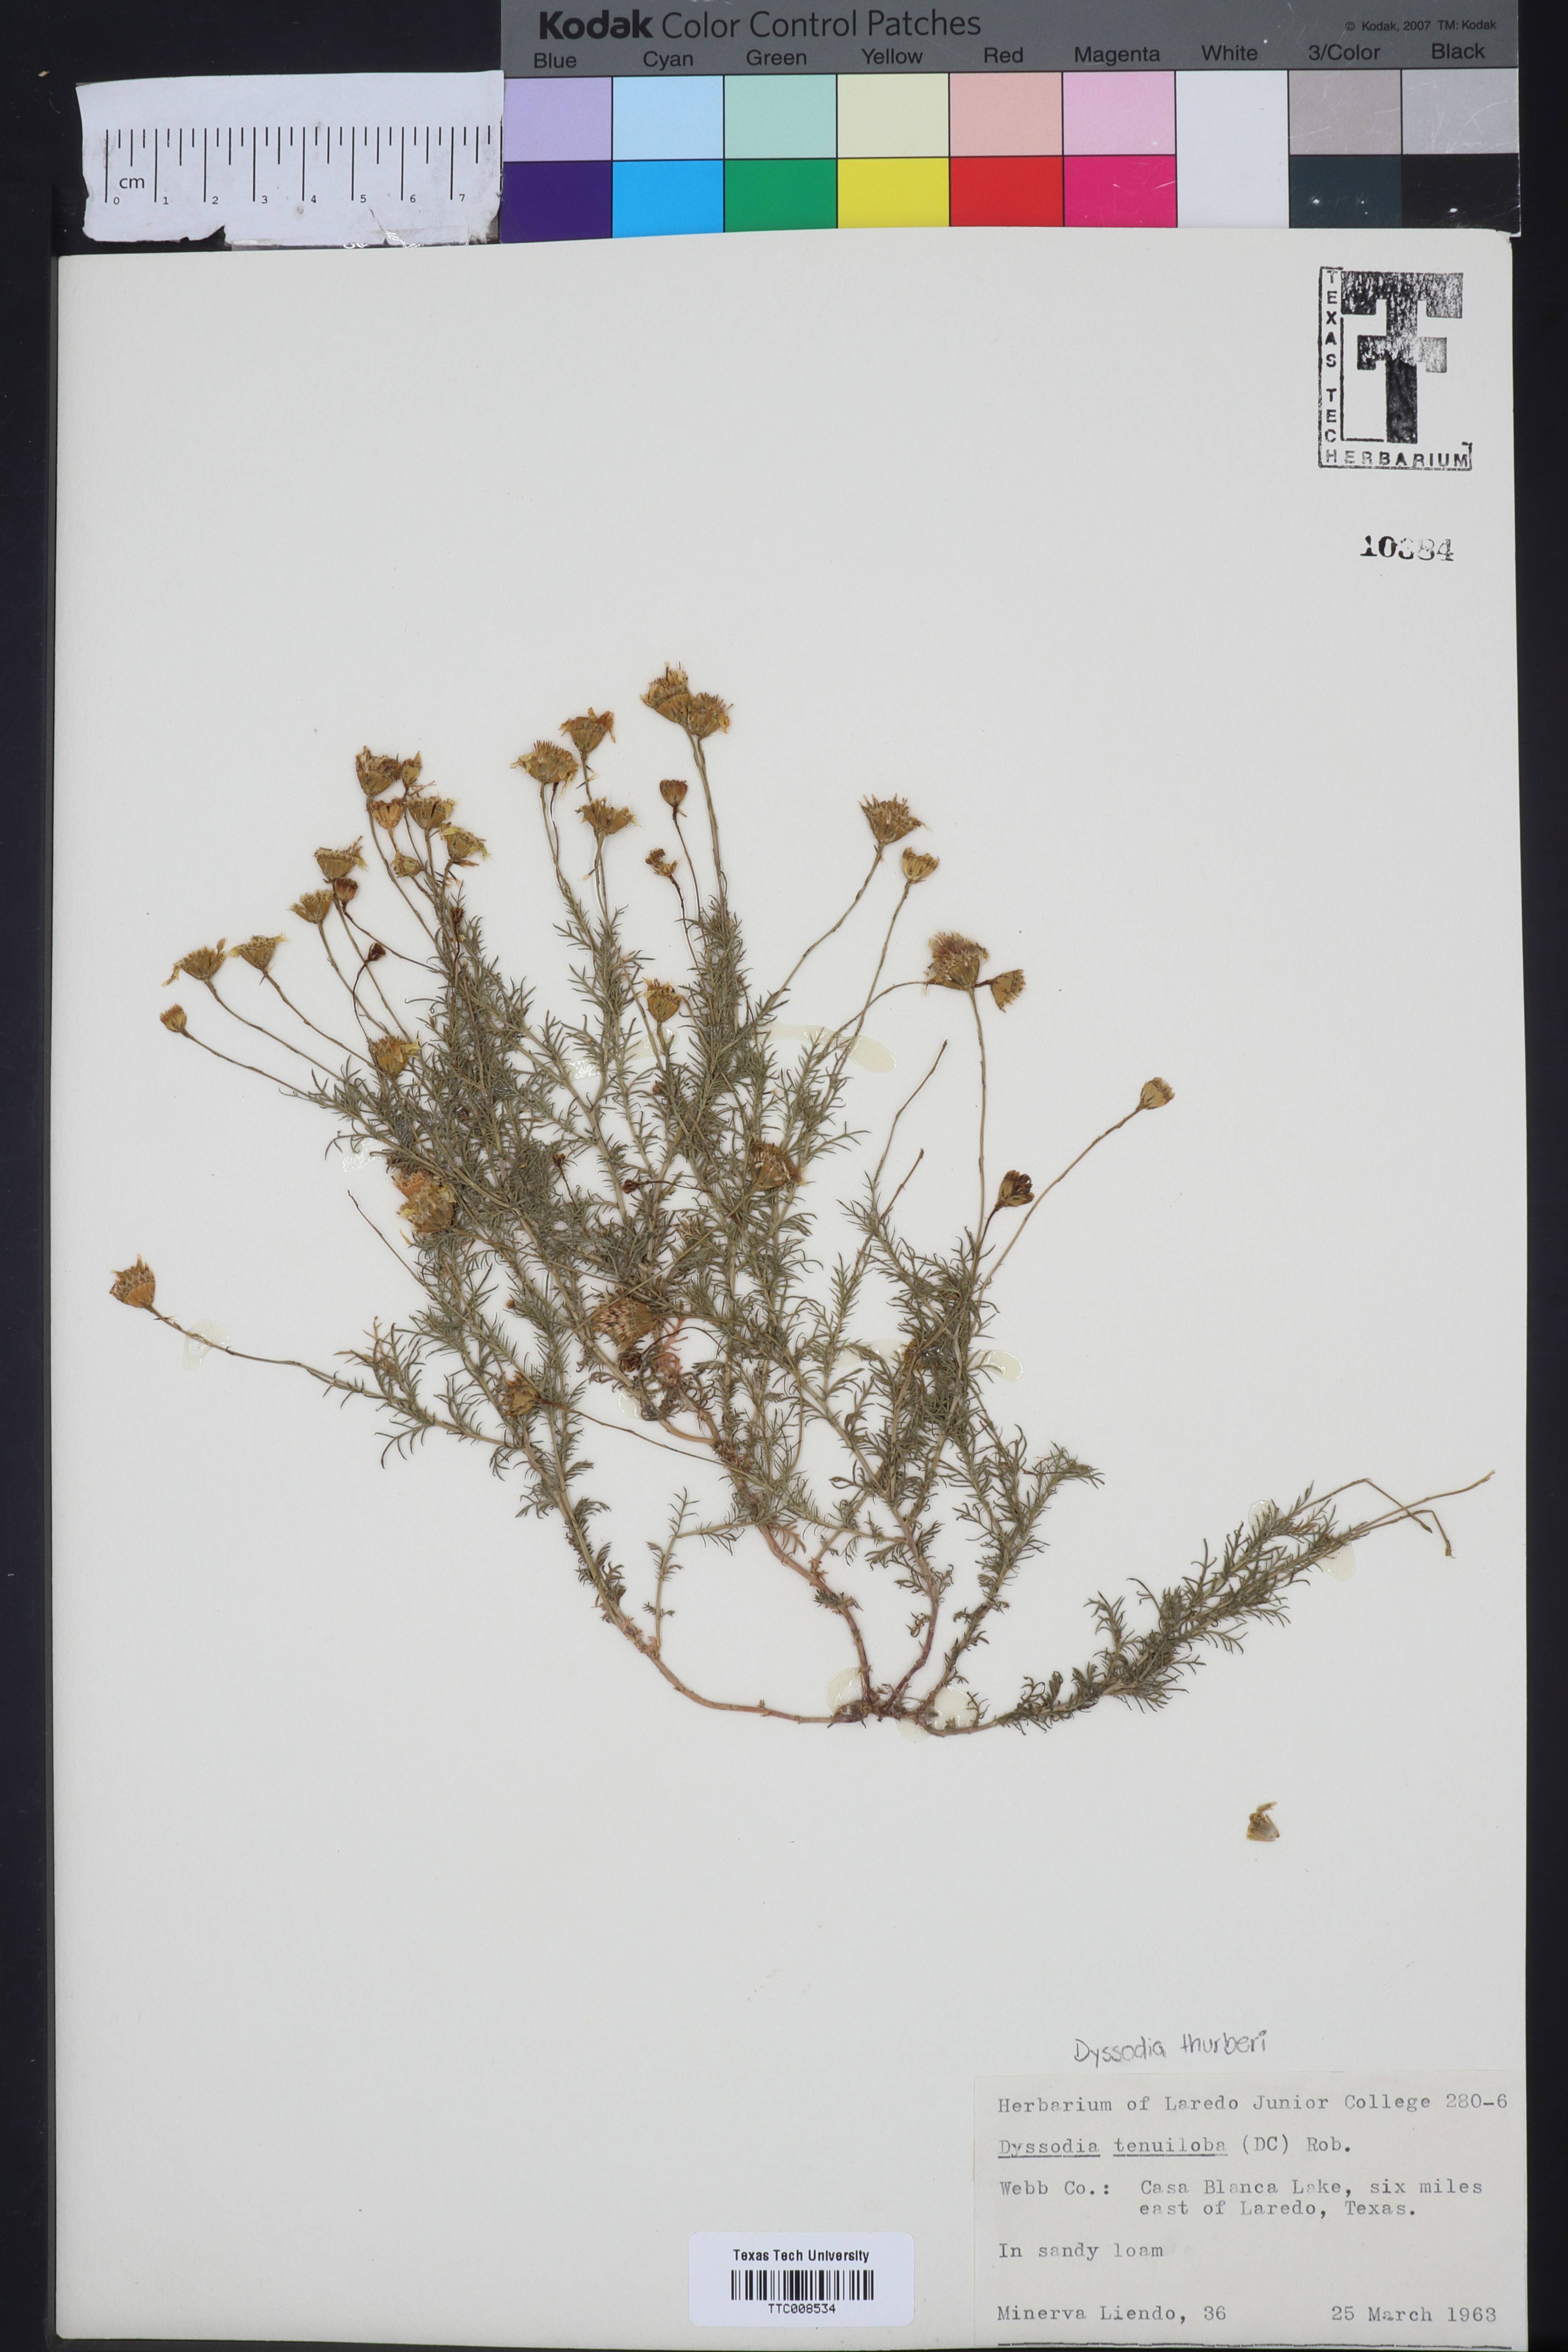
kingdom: Plantae
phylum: Tracheophyta
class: Magnoliopsida
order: Asterales
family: Asteraceae
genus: Thymophylla
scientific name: Thymophylla tenuiloba
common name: Dahlberg's daisy
